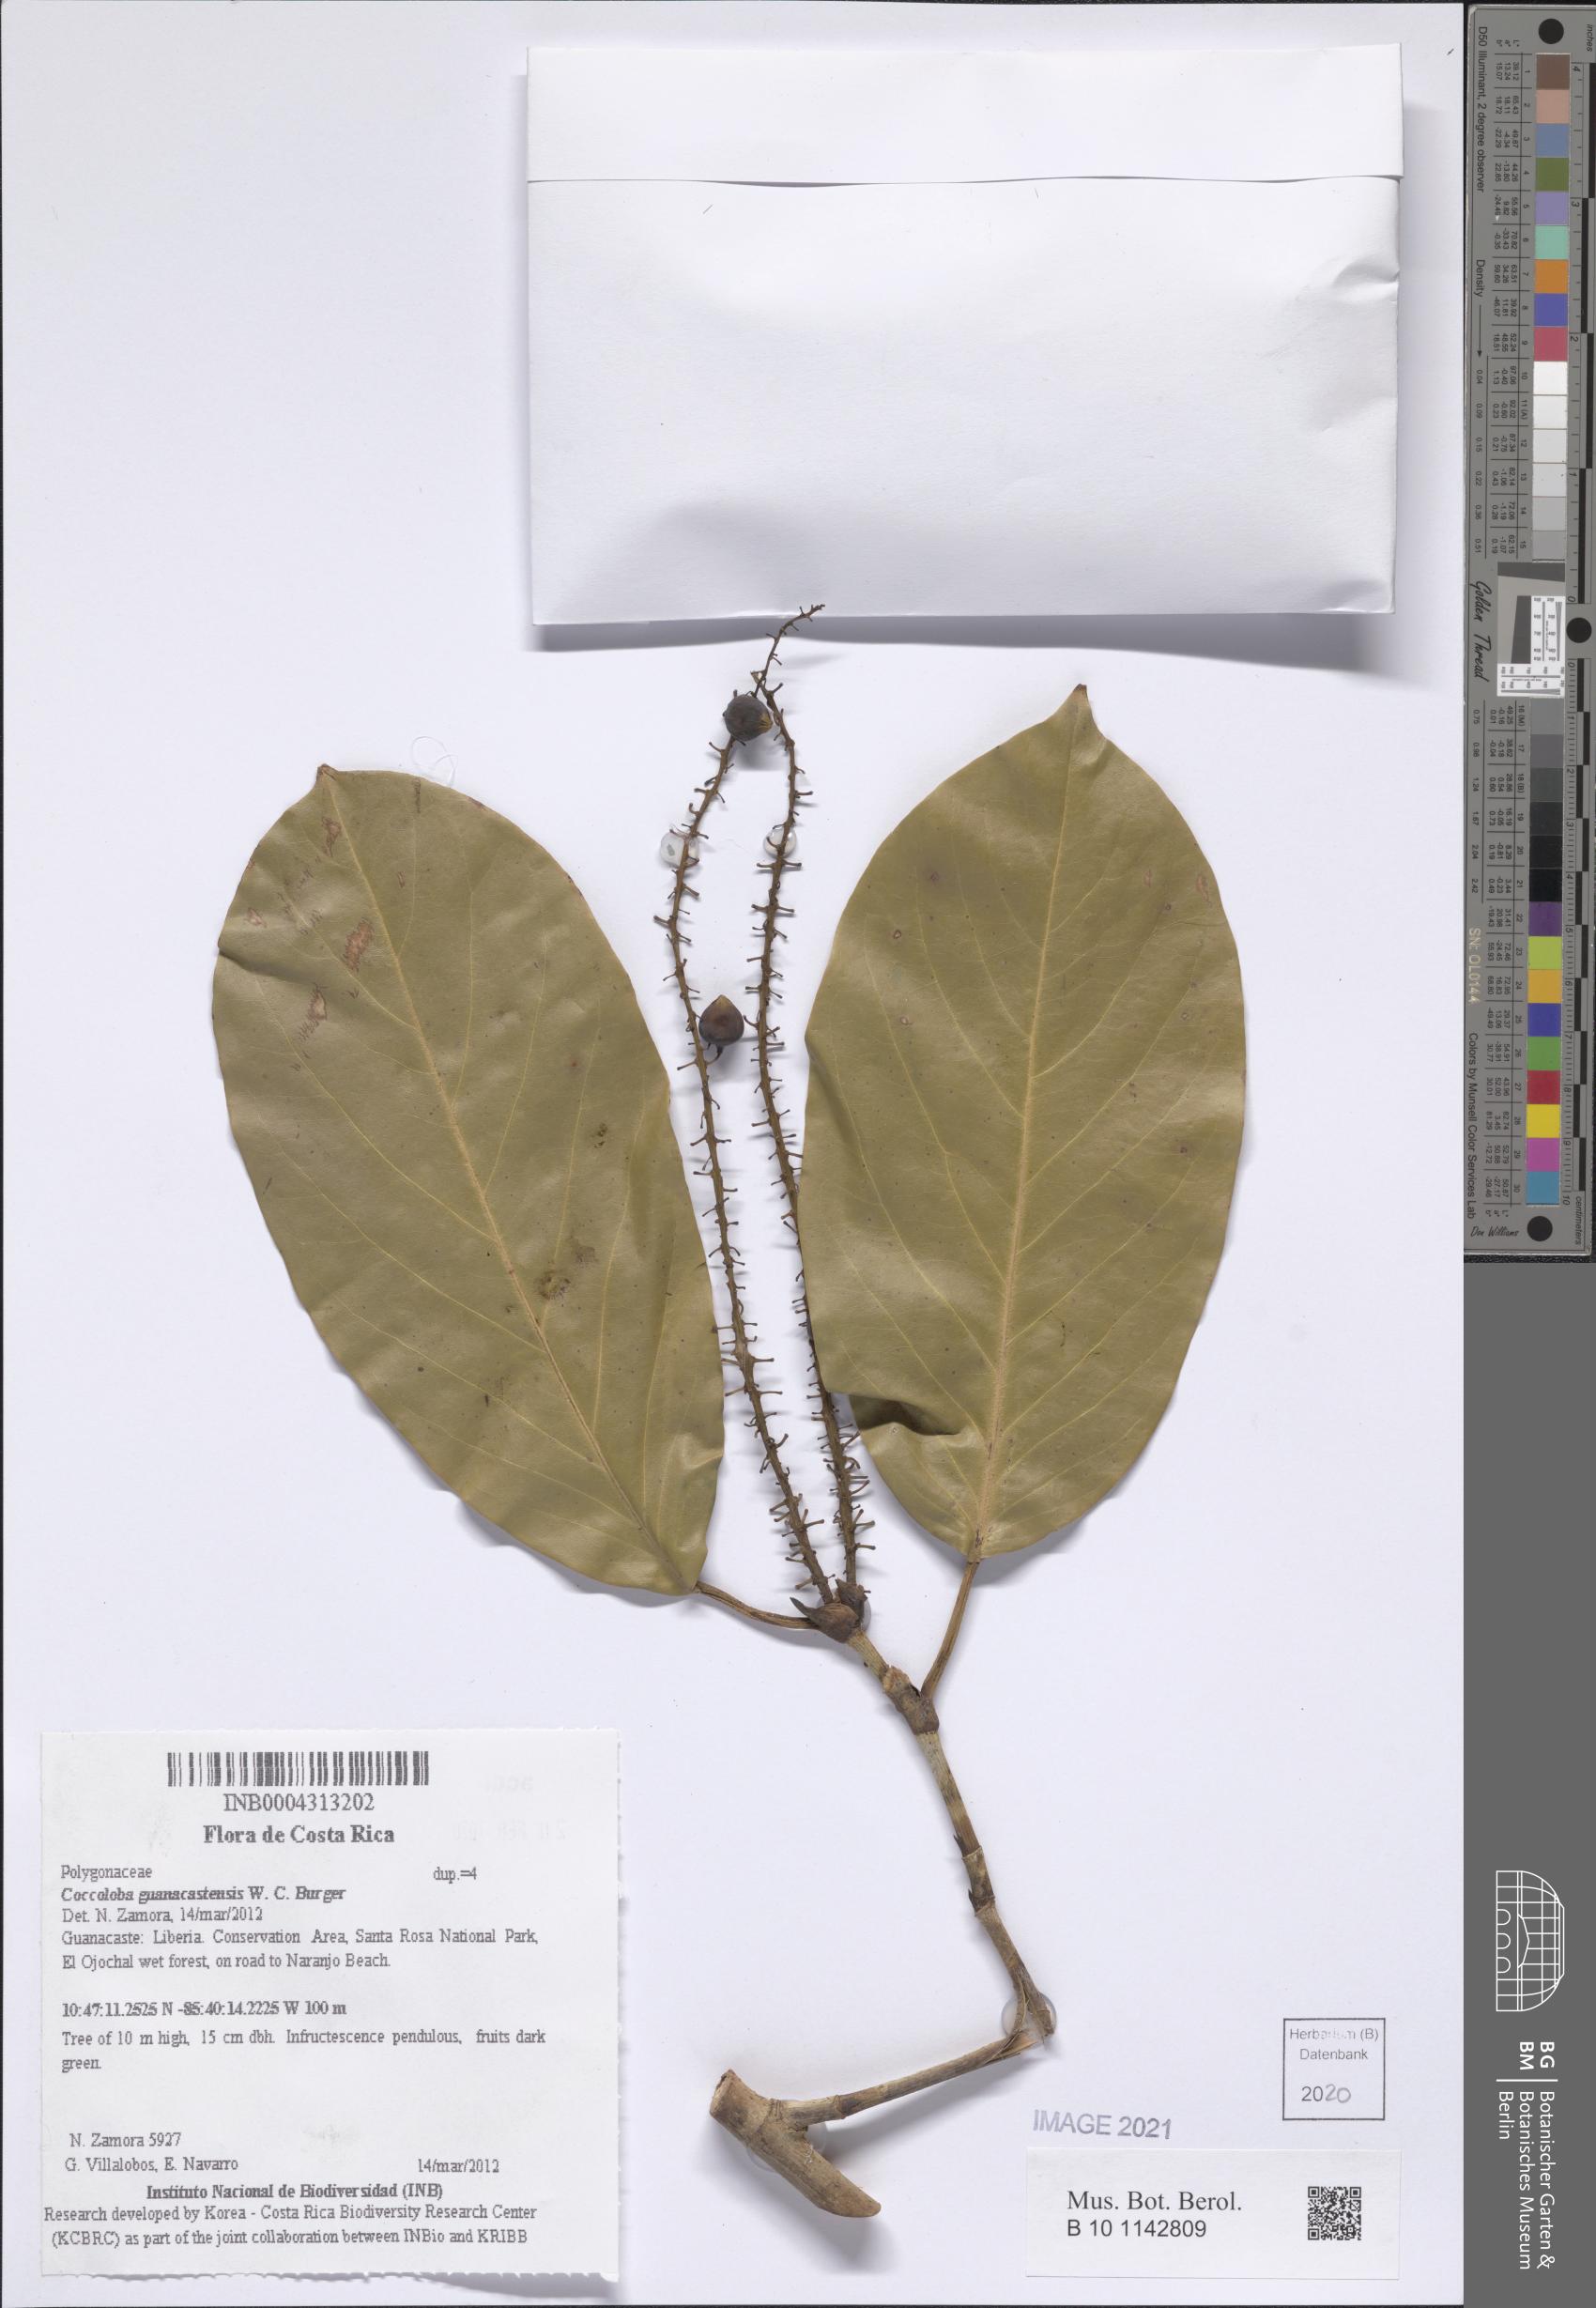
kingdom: Plantae
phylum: Tracheophyta
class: Magnoliopsida
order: Caryophyllales
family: Polygonaceae
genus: Coccoloba
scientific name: Coccoloba guanacastensis
